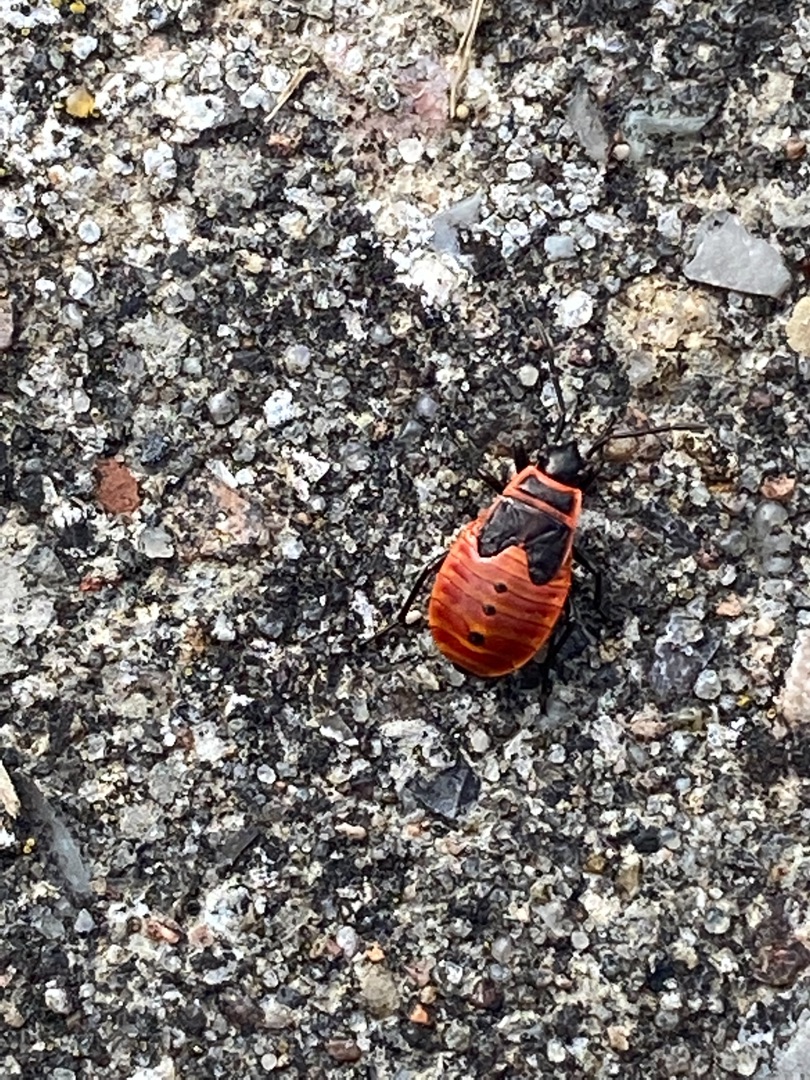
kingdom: Animalia
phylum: Arthropoda
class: Insecta
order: Hemiptera
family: Pyrrhocoridae
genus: Pyrrhocoris
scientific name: Pyrrhocoris apterus
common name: Ildtæge
